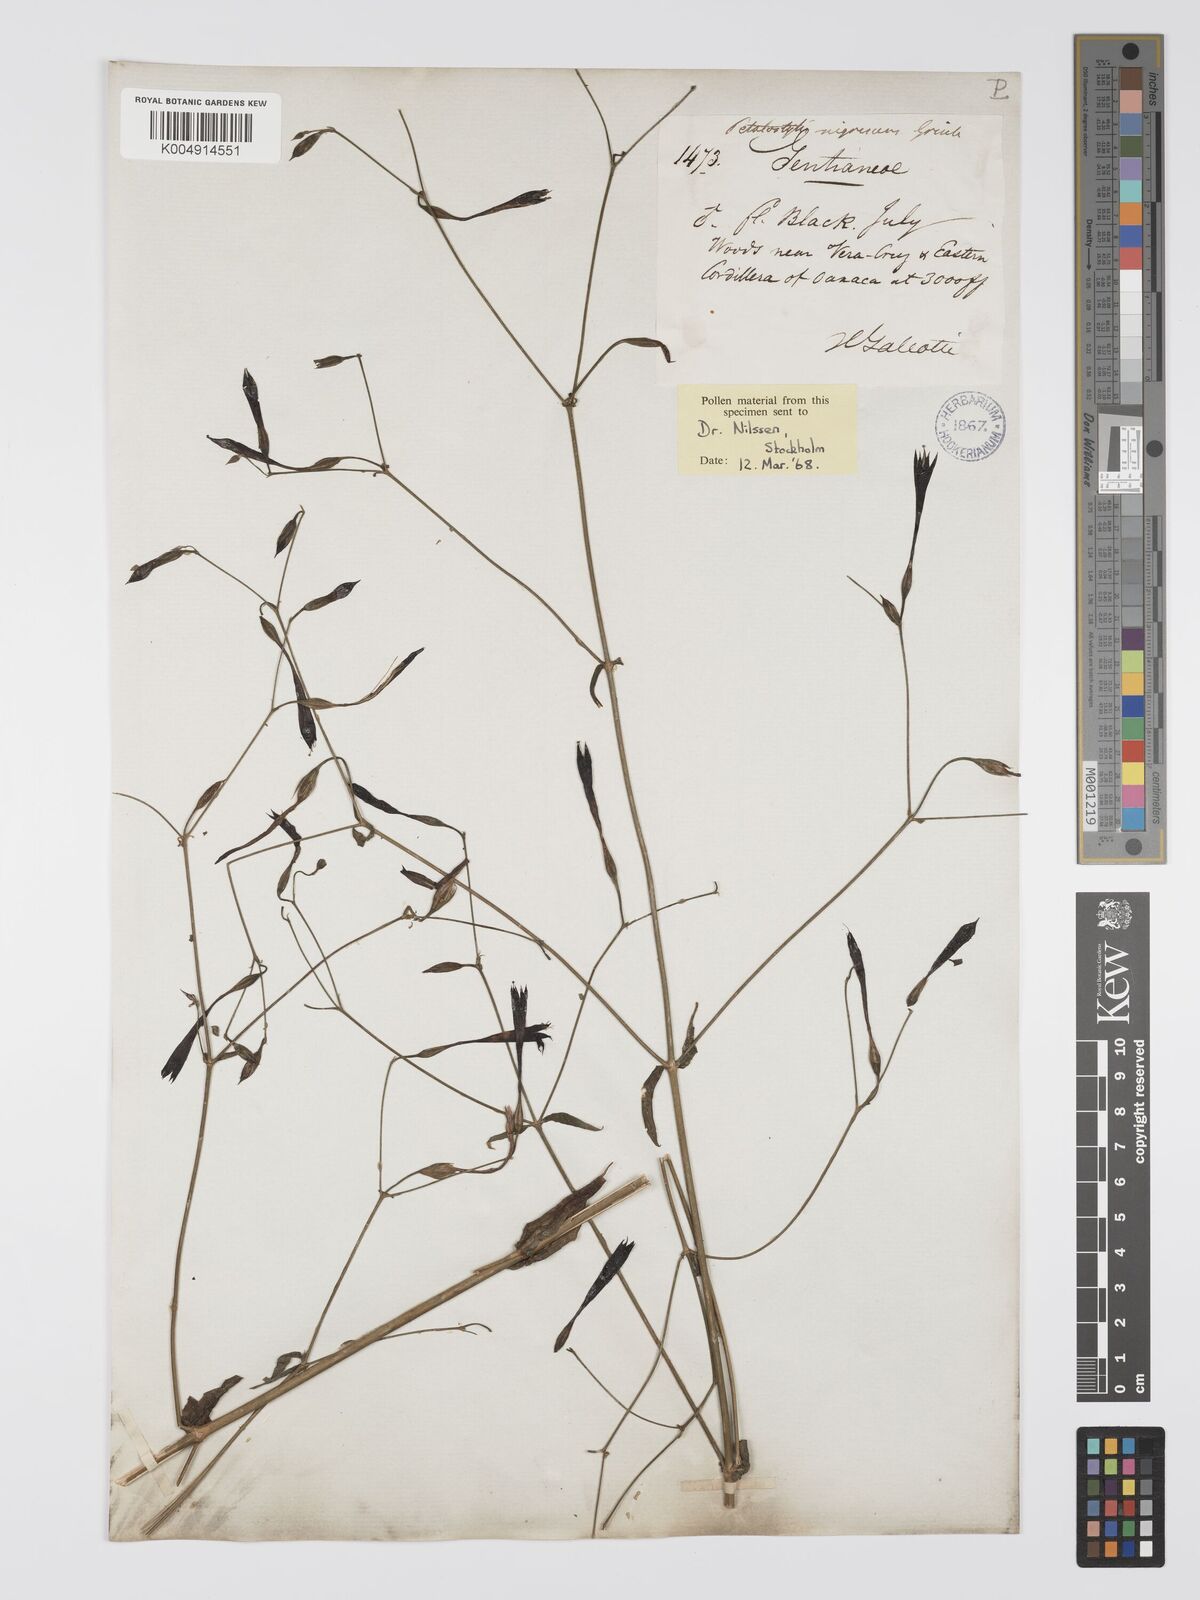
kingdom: Plantae
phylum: Tracheophyta
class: Magnoliopsida
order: Gentianales
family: Gentianaceae
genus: Lisianthus
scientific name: Lisianthus nigrescens
